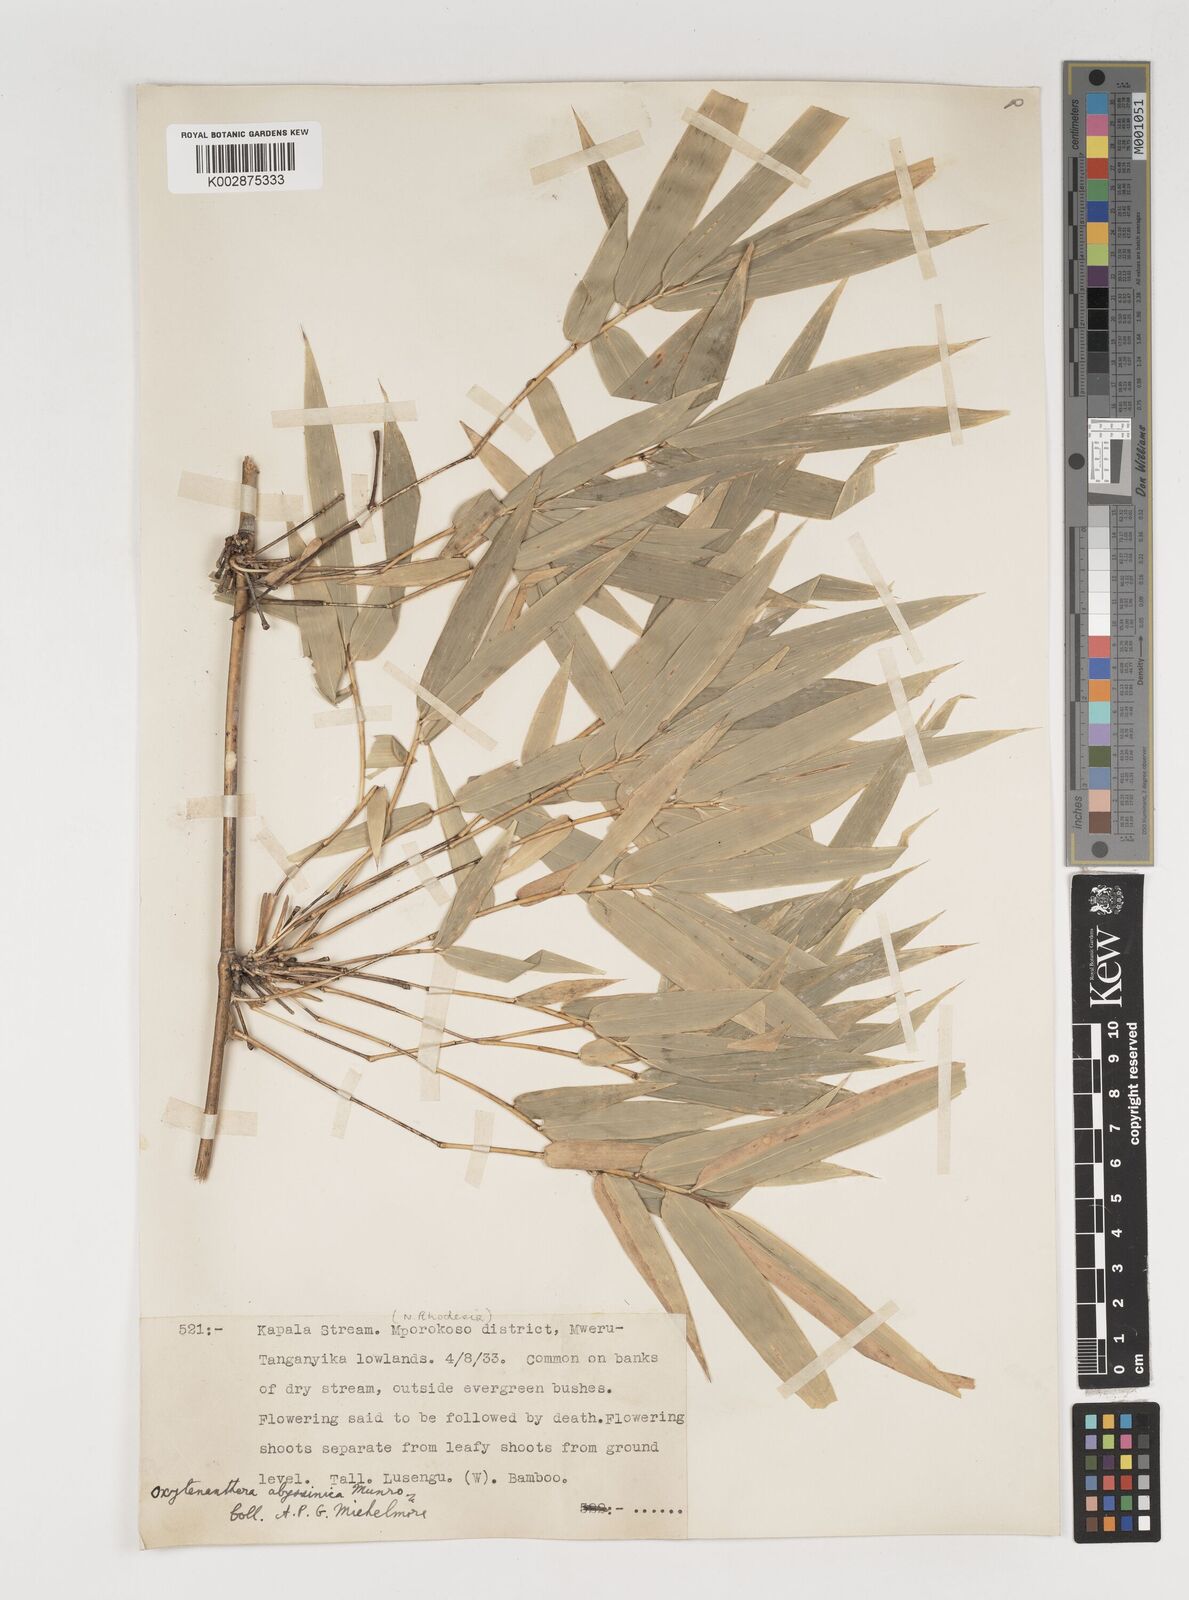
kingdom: Plantae
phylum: Tracheophyta
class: Liliopsida
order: Poales
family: Poaceae
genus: Oxytenanthera
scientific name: Oxytenanthera abyssinica
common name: Wine bamboo
